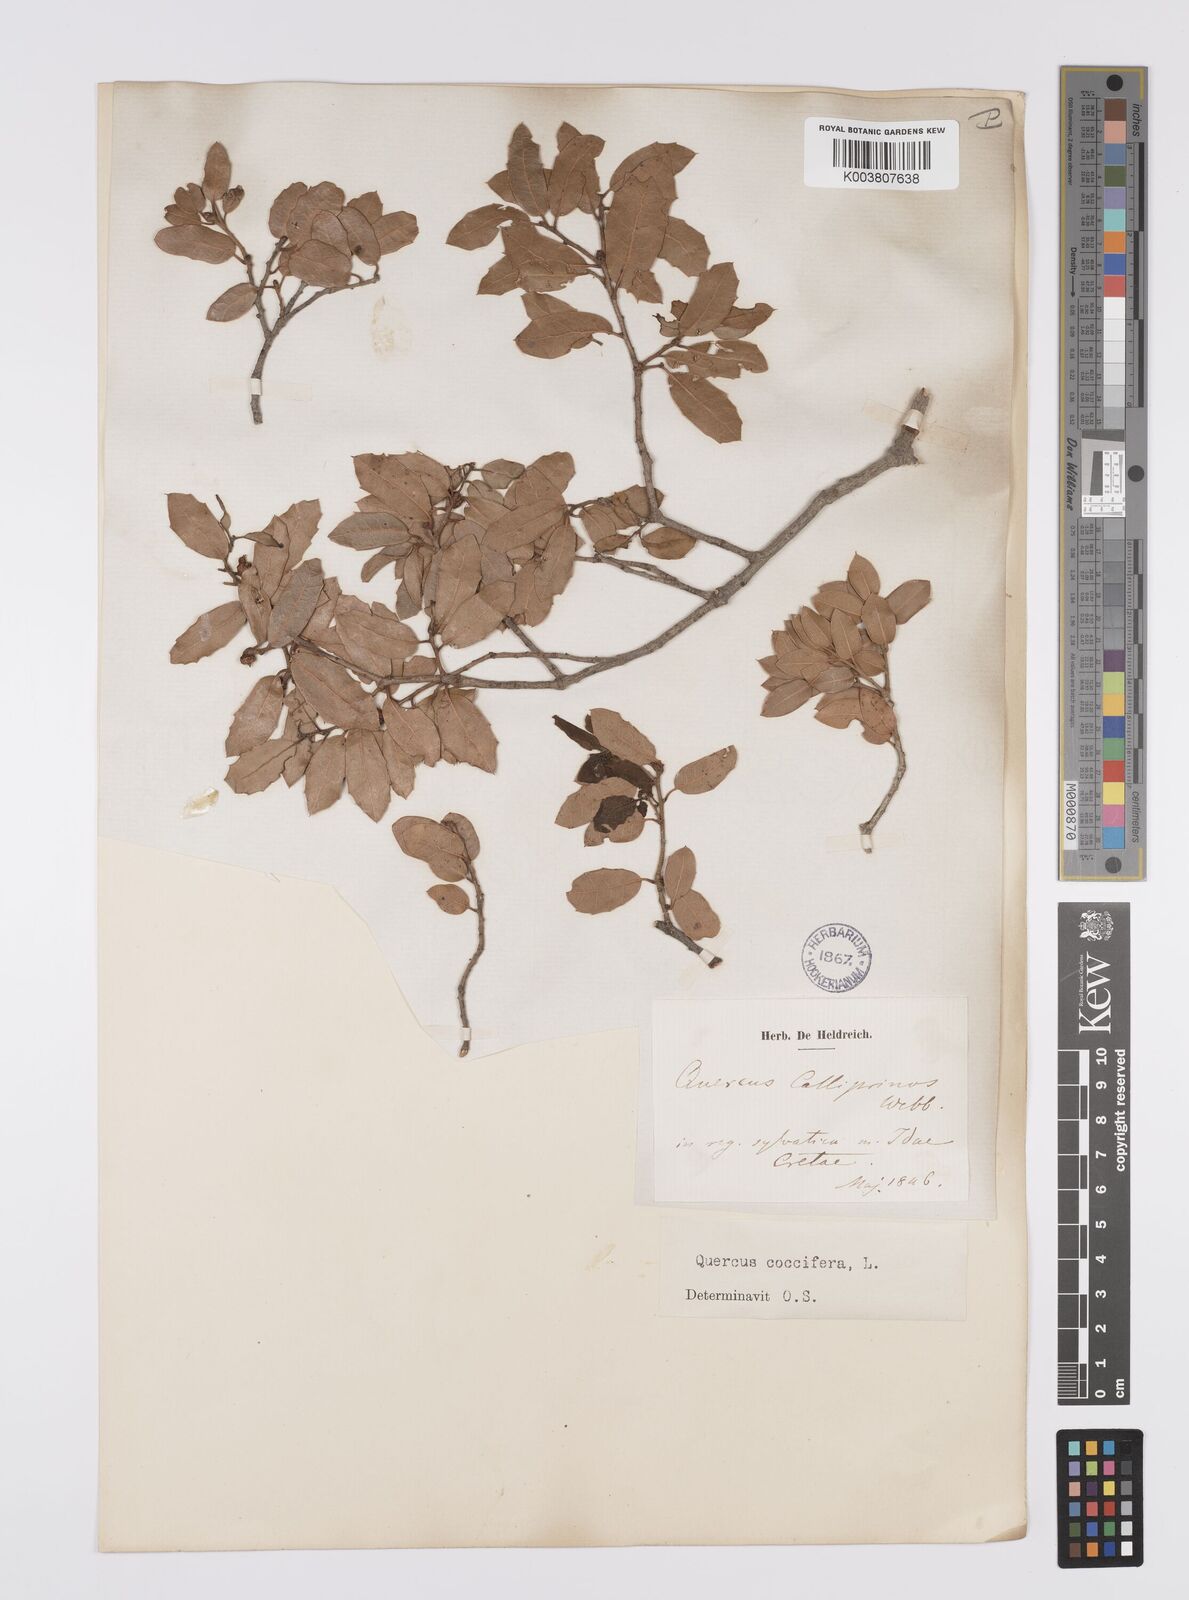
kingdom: Plantae
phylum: Tracheophyta
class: Magnoliopsida
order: Fagales
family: Fagaceae
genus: Quercus
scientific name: Quercus coccifera
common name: Kermes oak
